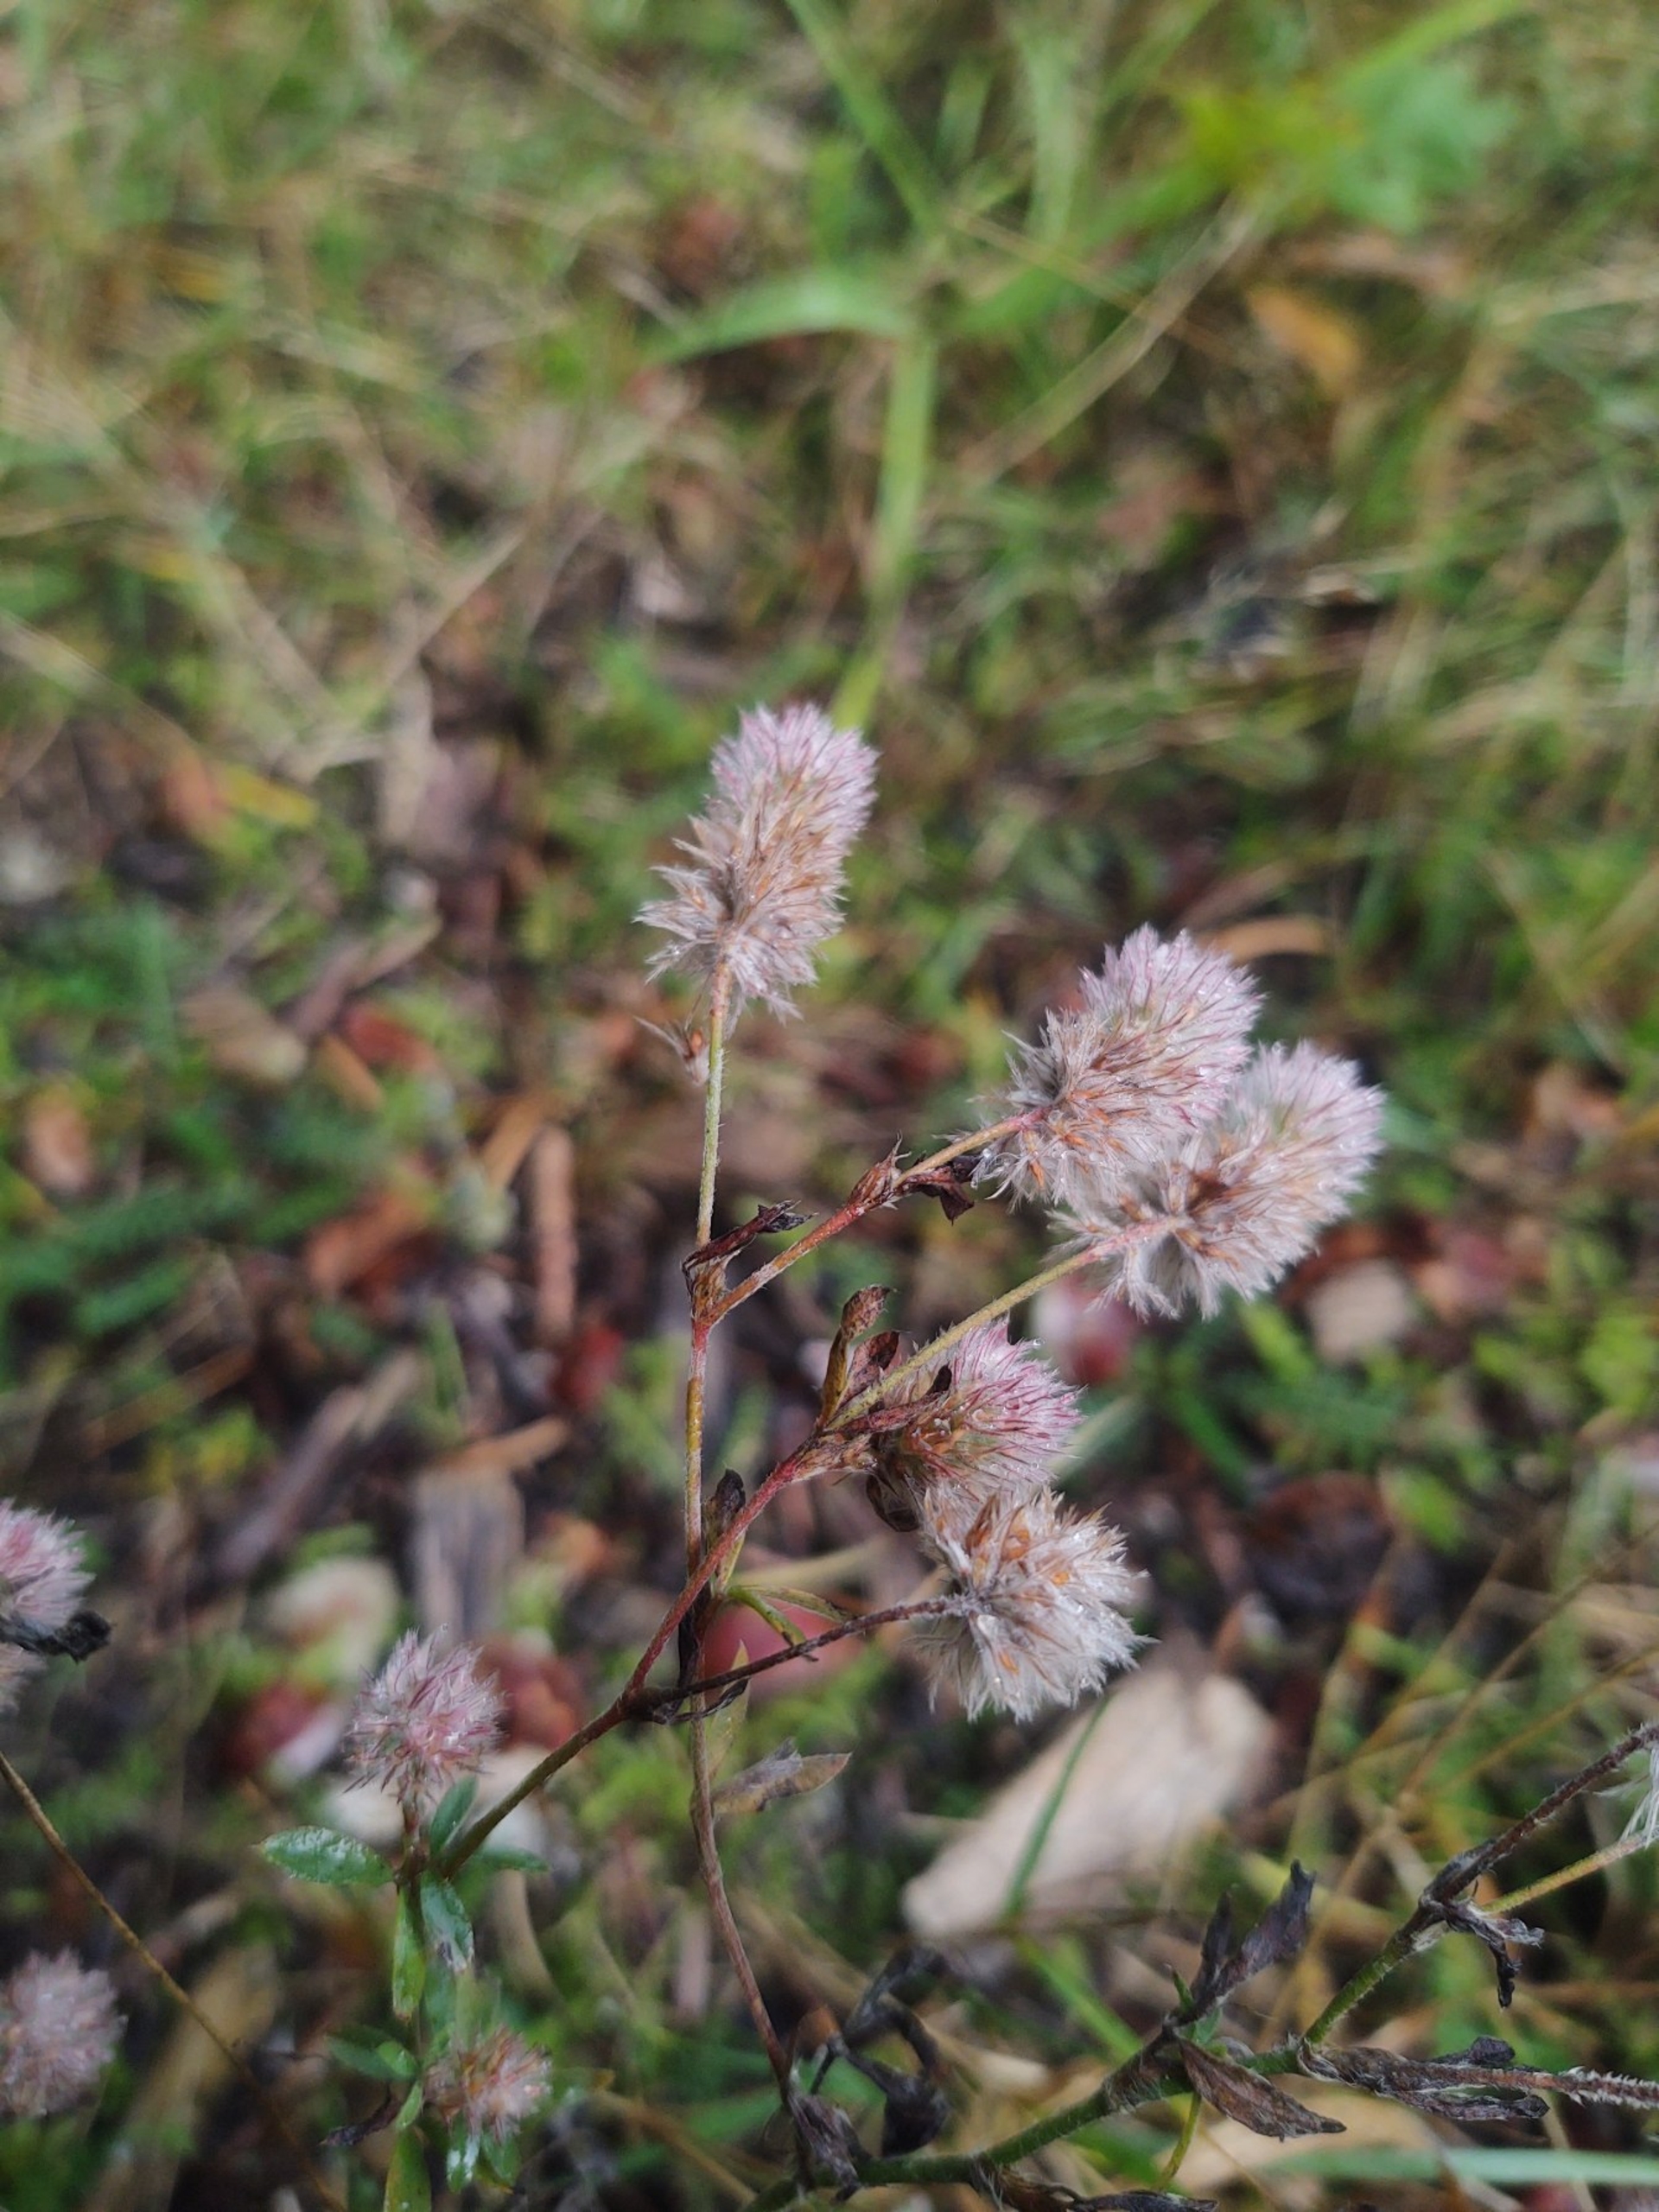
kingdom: Plantae
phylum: Tracheophyta
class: Magnoliopsida
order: Fabales
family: Fabaceae
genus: Trifolium
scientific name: Trifolium arvense
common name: Hare-kløver
